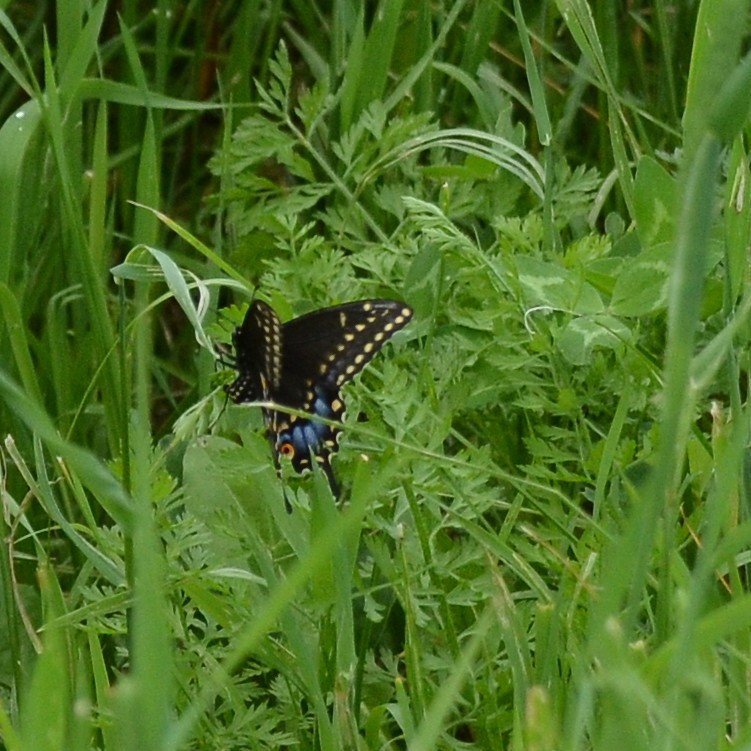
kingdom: Animalia
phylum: Arthropoda
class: Insecta
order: Lepidoptera
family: Papilionidae
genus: Papilio
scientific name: Papilio polyxenes
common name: Black Swallowtail
